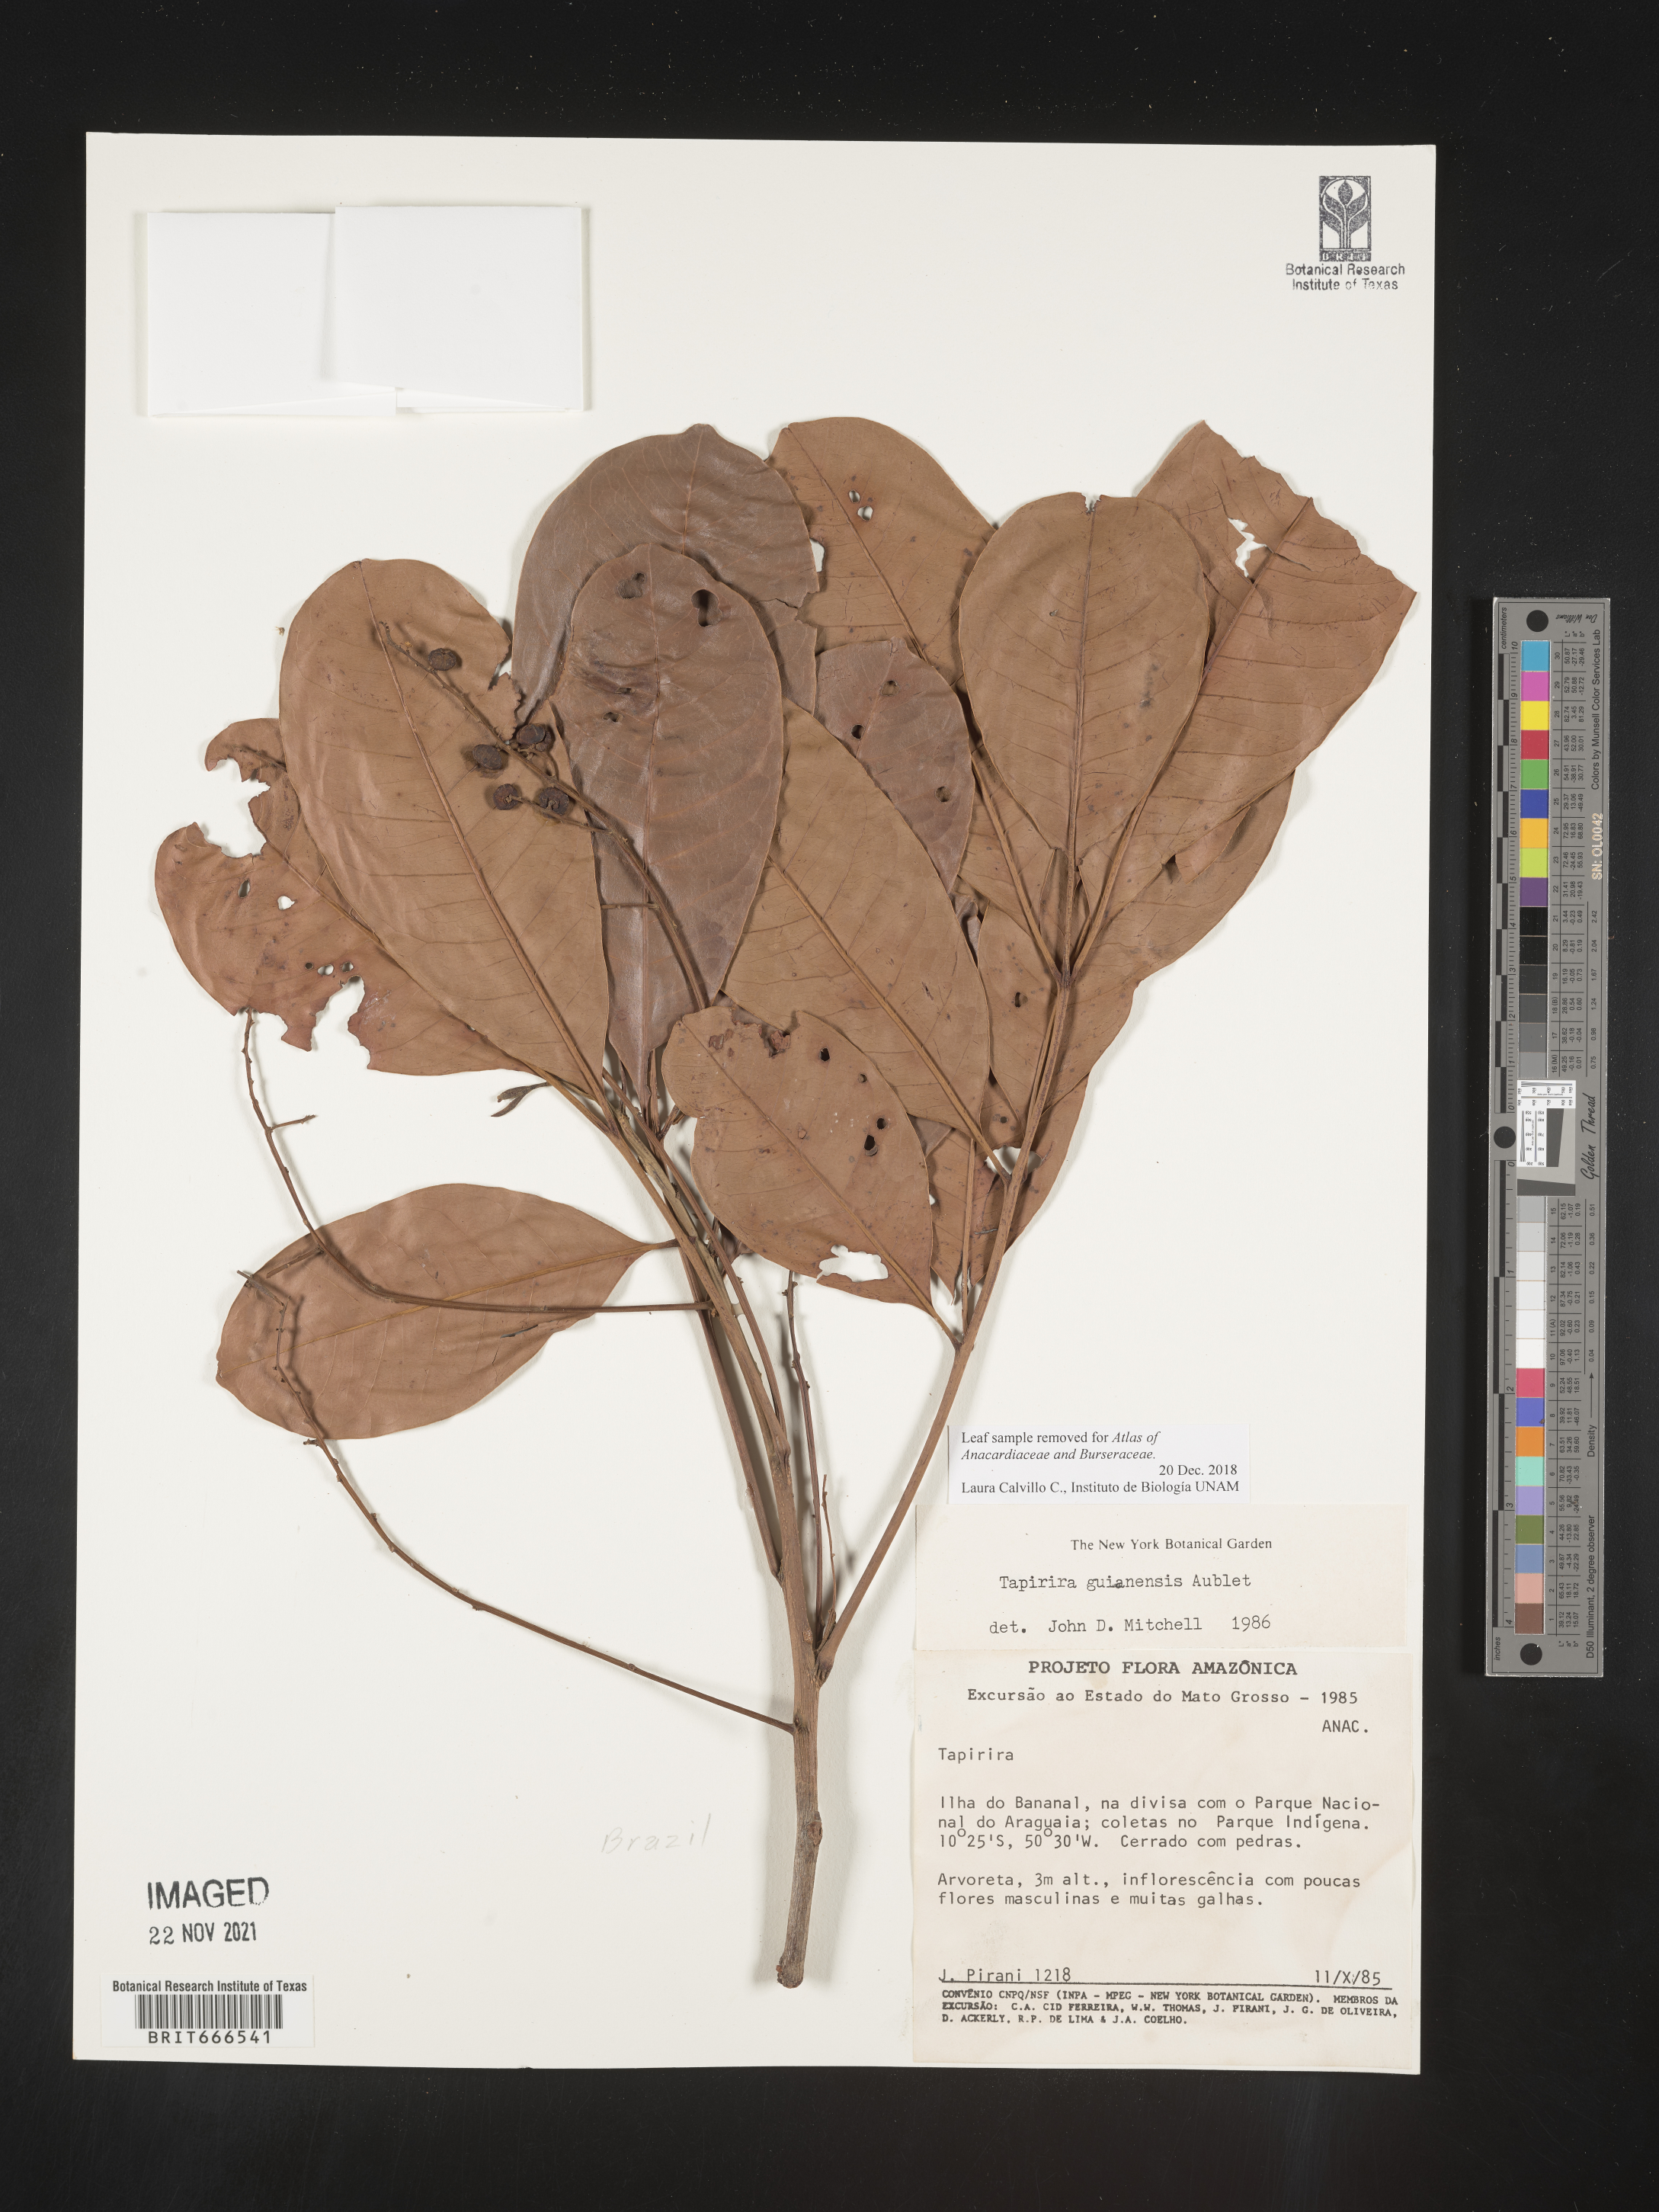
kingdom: Plantae
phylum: Tracheophyta
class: Magnoliopsida
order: Sapindales
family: Anacardiaceae
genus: Tapirira
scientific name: Tapirira guianensis
